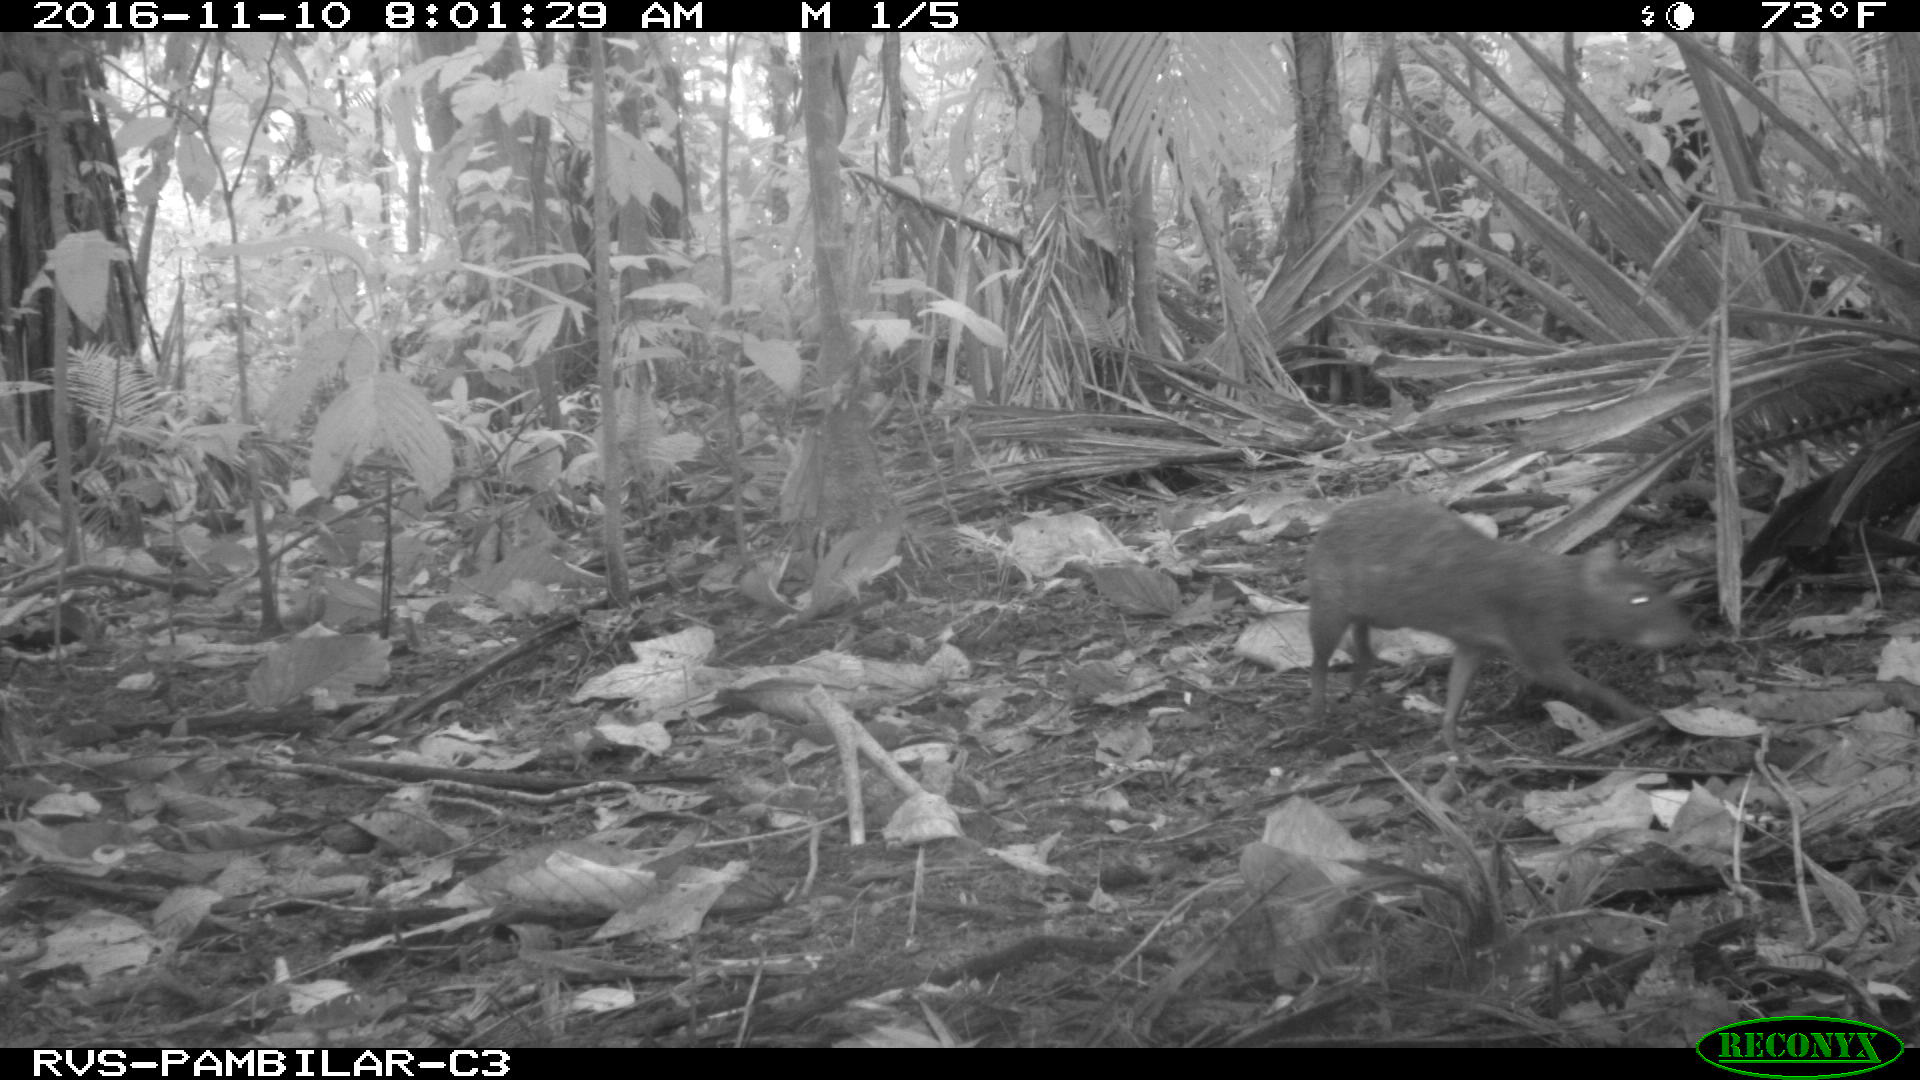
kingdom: Animalia
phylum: Chordata
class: Mammalia
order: Rodentia
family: Dasyproctidae
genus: Dasyprocta
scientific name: Dasyprocta punctata
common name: Central american agouti
